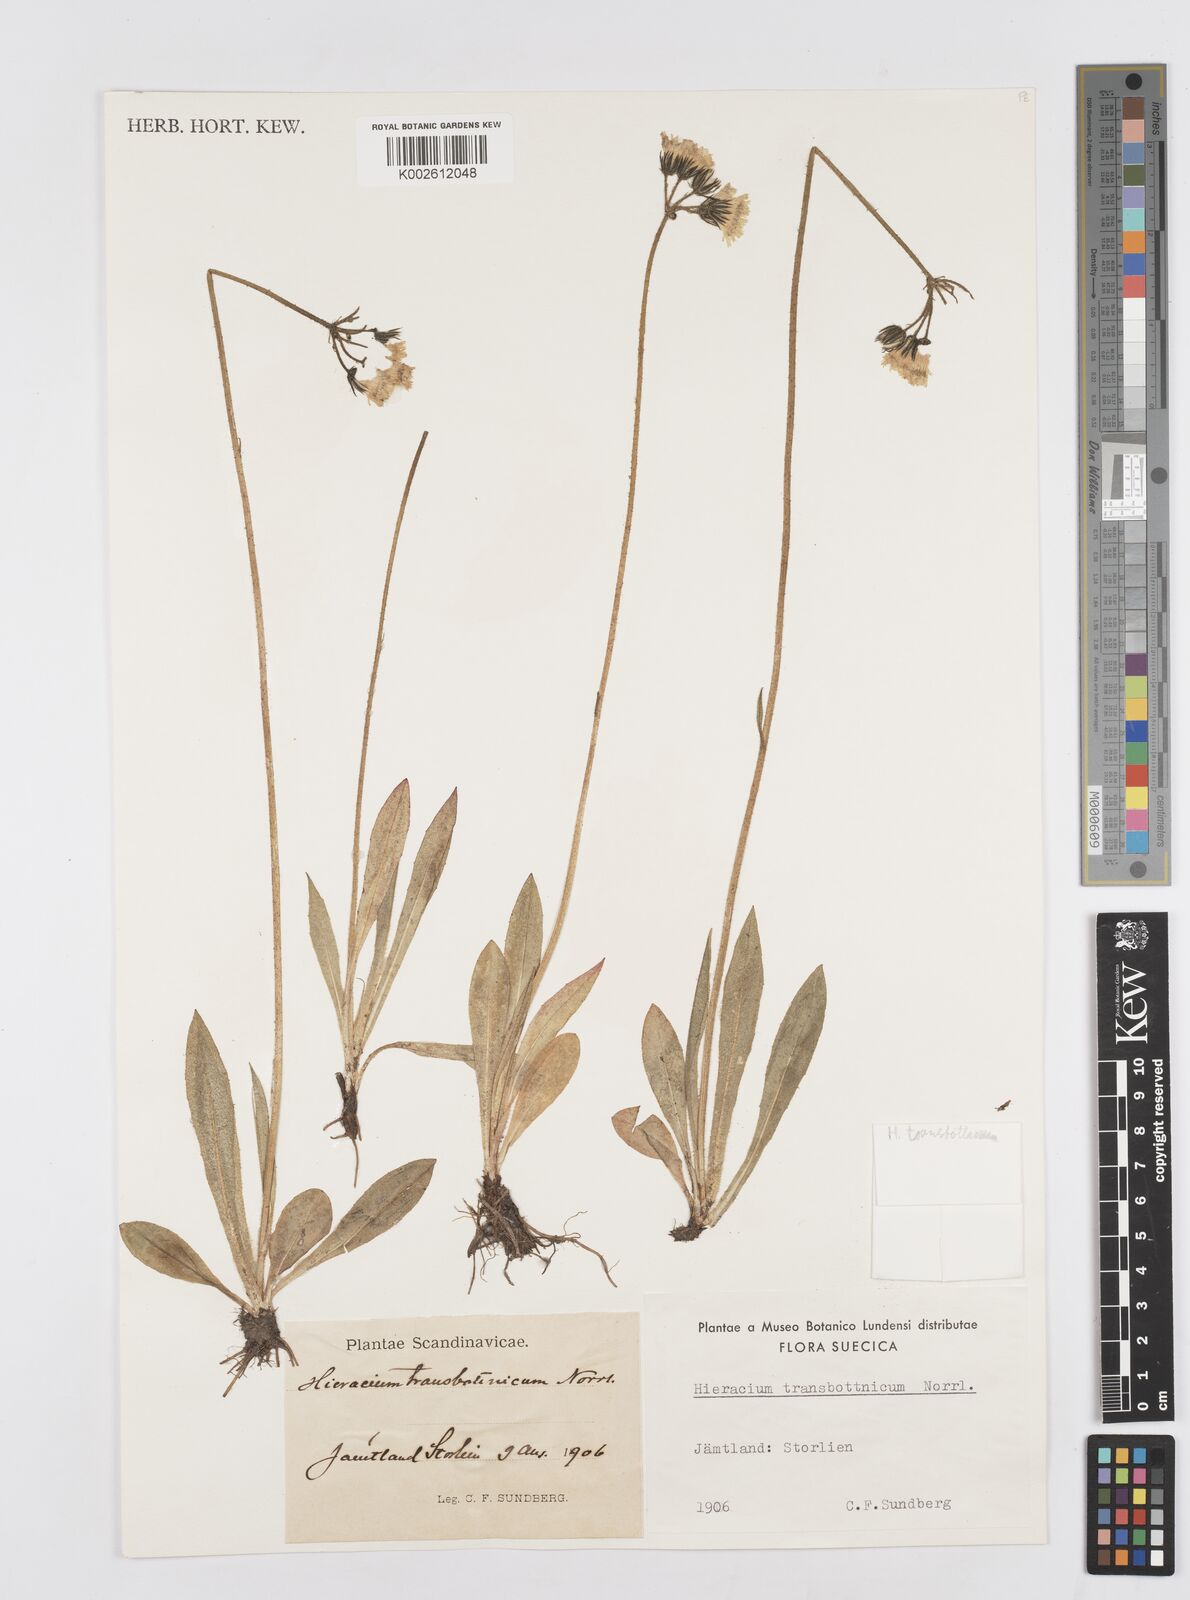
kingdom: Plantae
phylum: Tracheophyta
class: Magnoliopsida
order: Asterales
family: Asteraceae
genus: Pilosella
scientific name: Pilosella transbotnica
